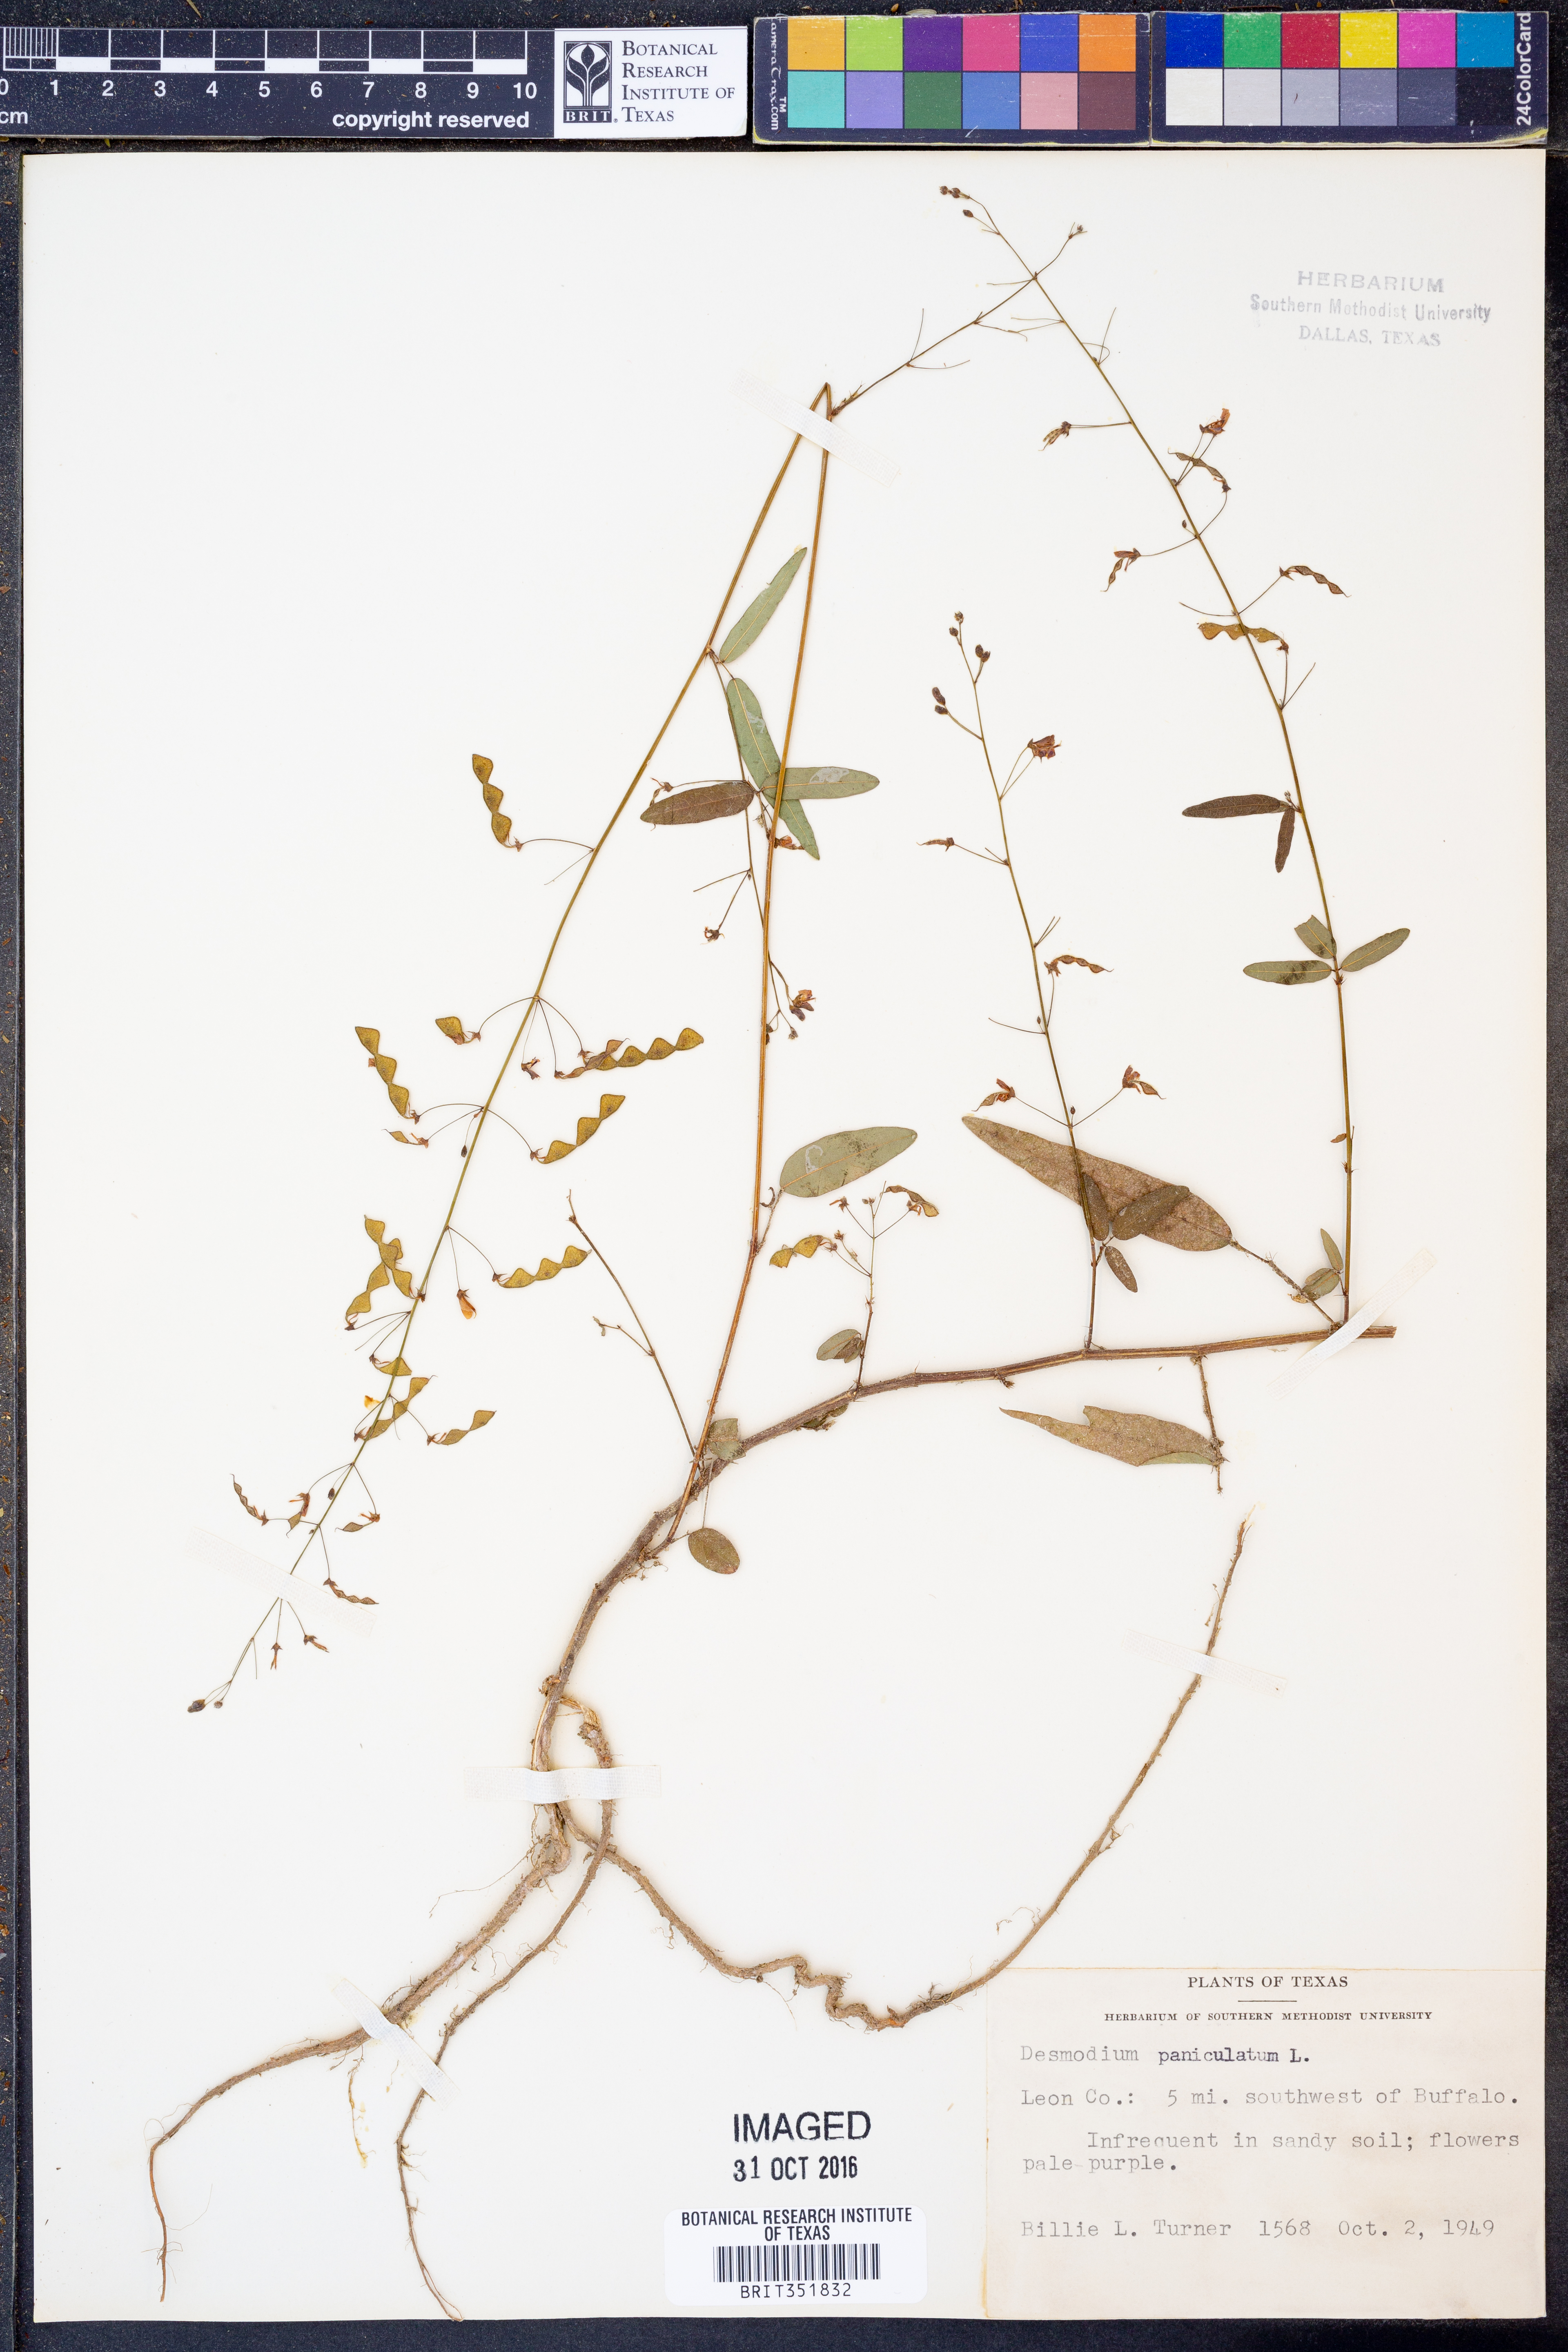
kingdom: Plantae
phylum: Tracheophyta
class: Magnoliopsida
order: Fabales
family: Fabaceae
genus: Desmodium
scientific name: Desmodium paniculatum
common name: Panicled tick-clover
